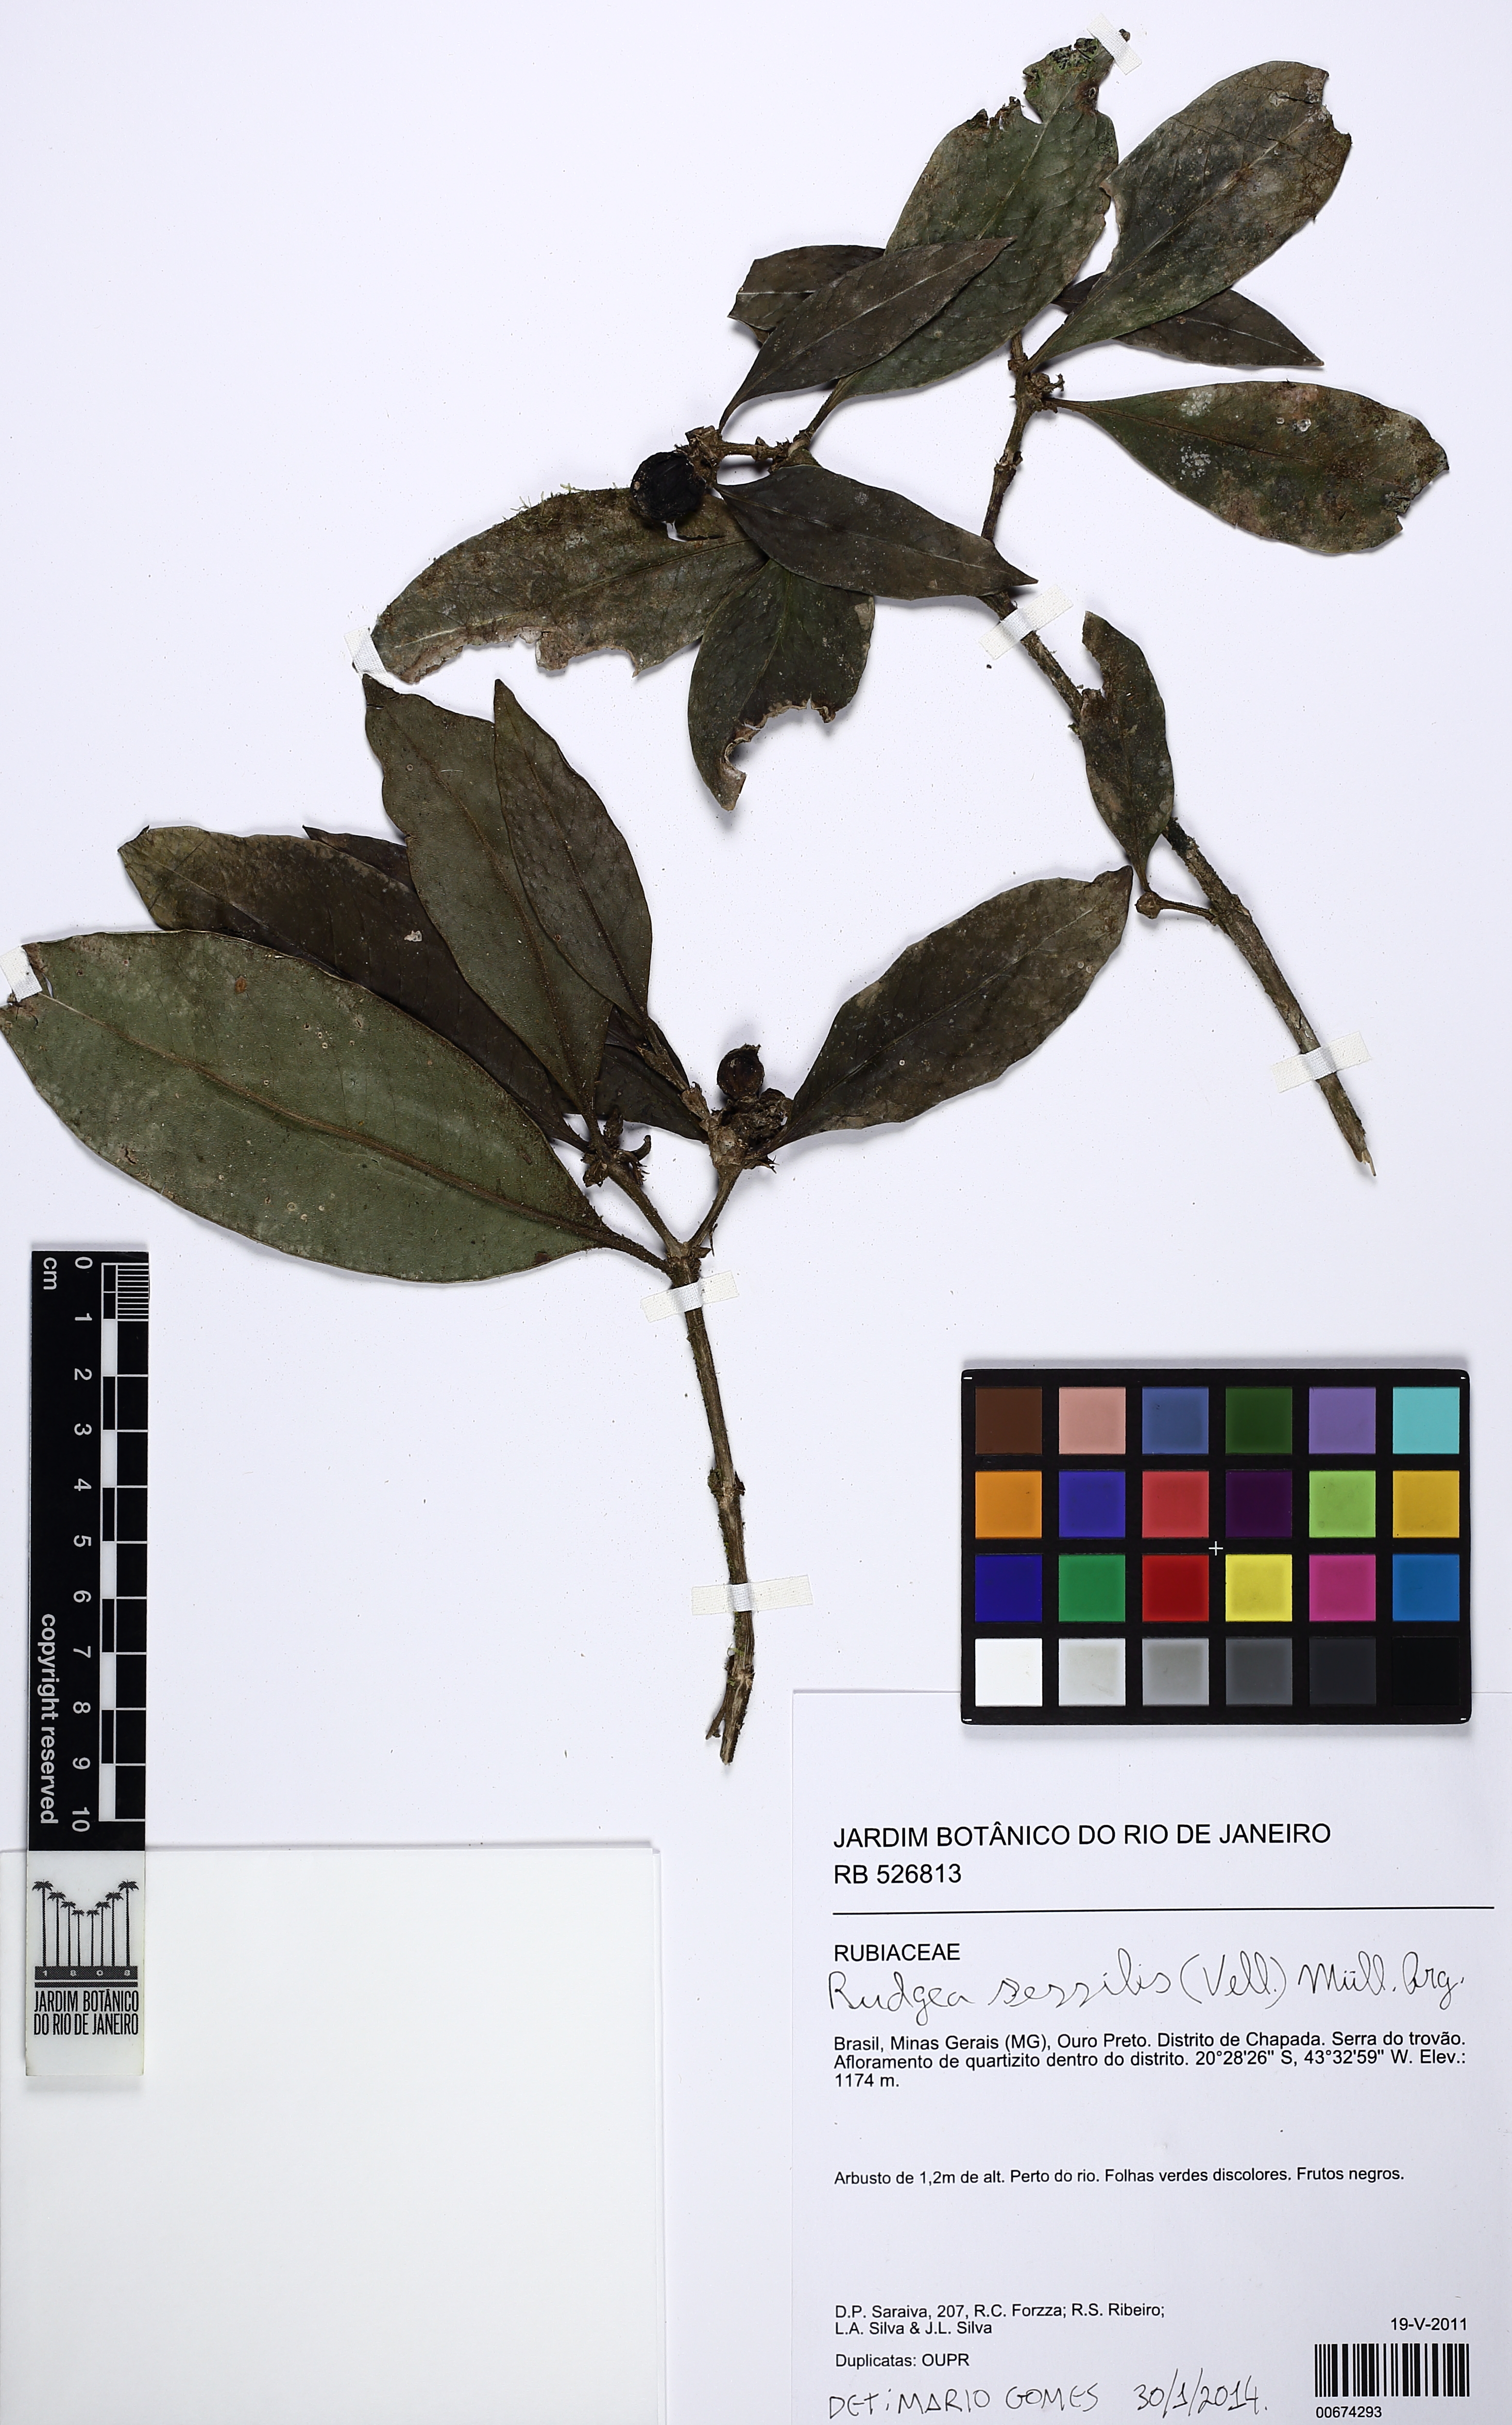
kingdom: Plantae
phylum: Tracheophyta
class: Magnoliopsida
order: Gentianales
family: Rubiaceae
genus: Rudgea
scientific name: Rudgea sessilis
